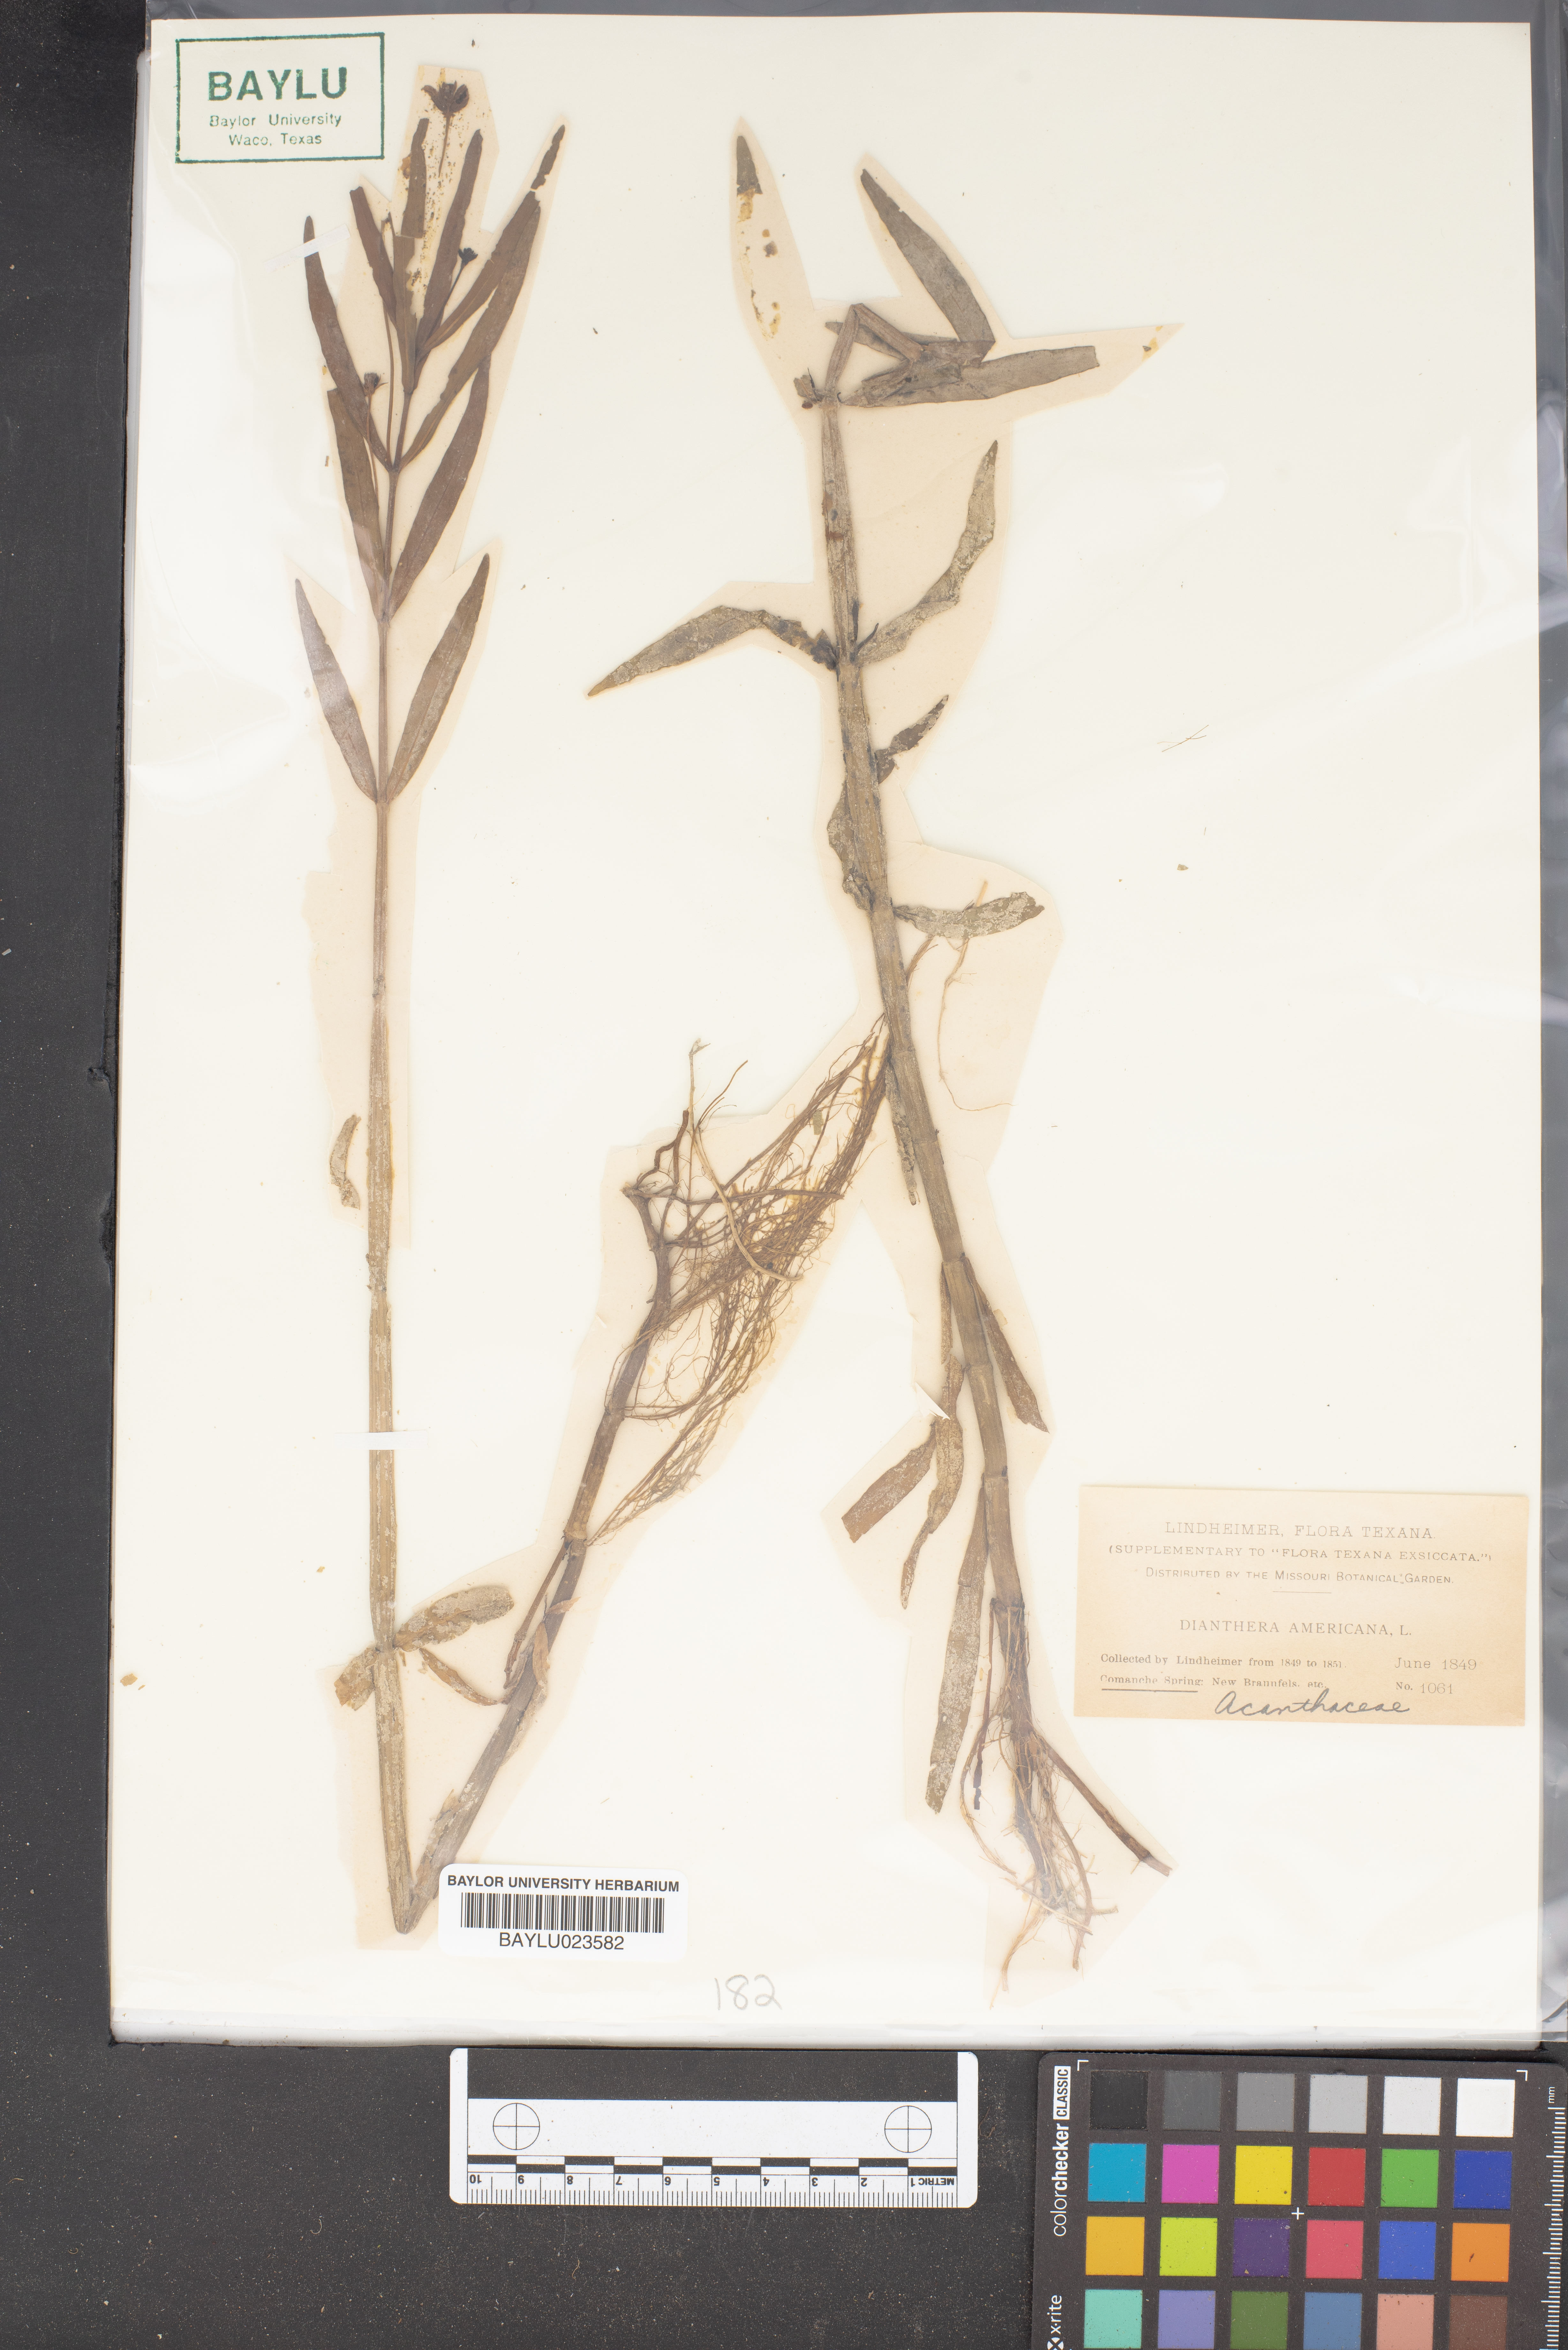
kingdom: Plantae
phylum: Tracheophyta
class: Magnoliopsida
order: Lamiales
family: Acanthaceae
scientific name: Acanthaceae
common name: Acanthaceae
